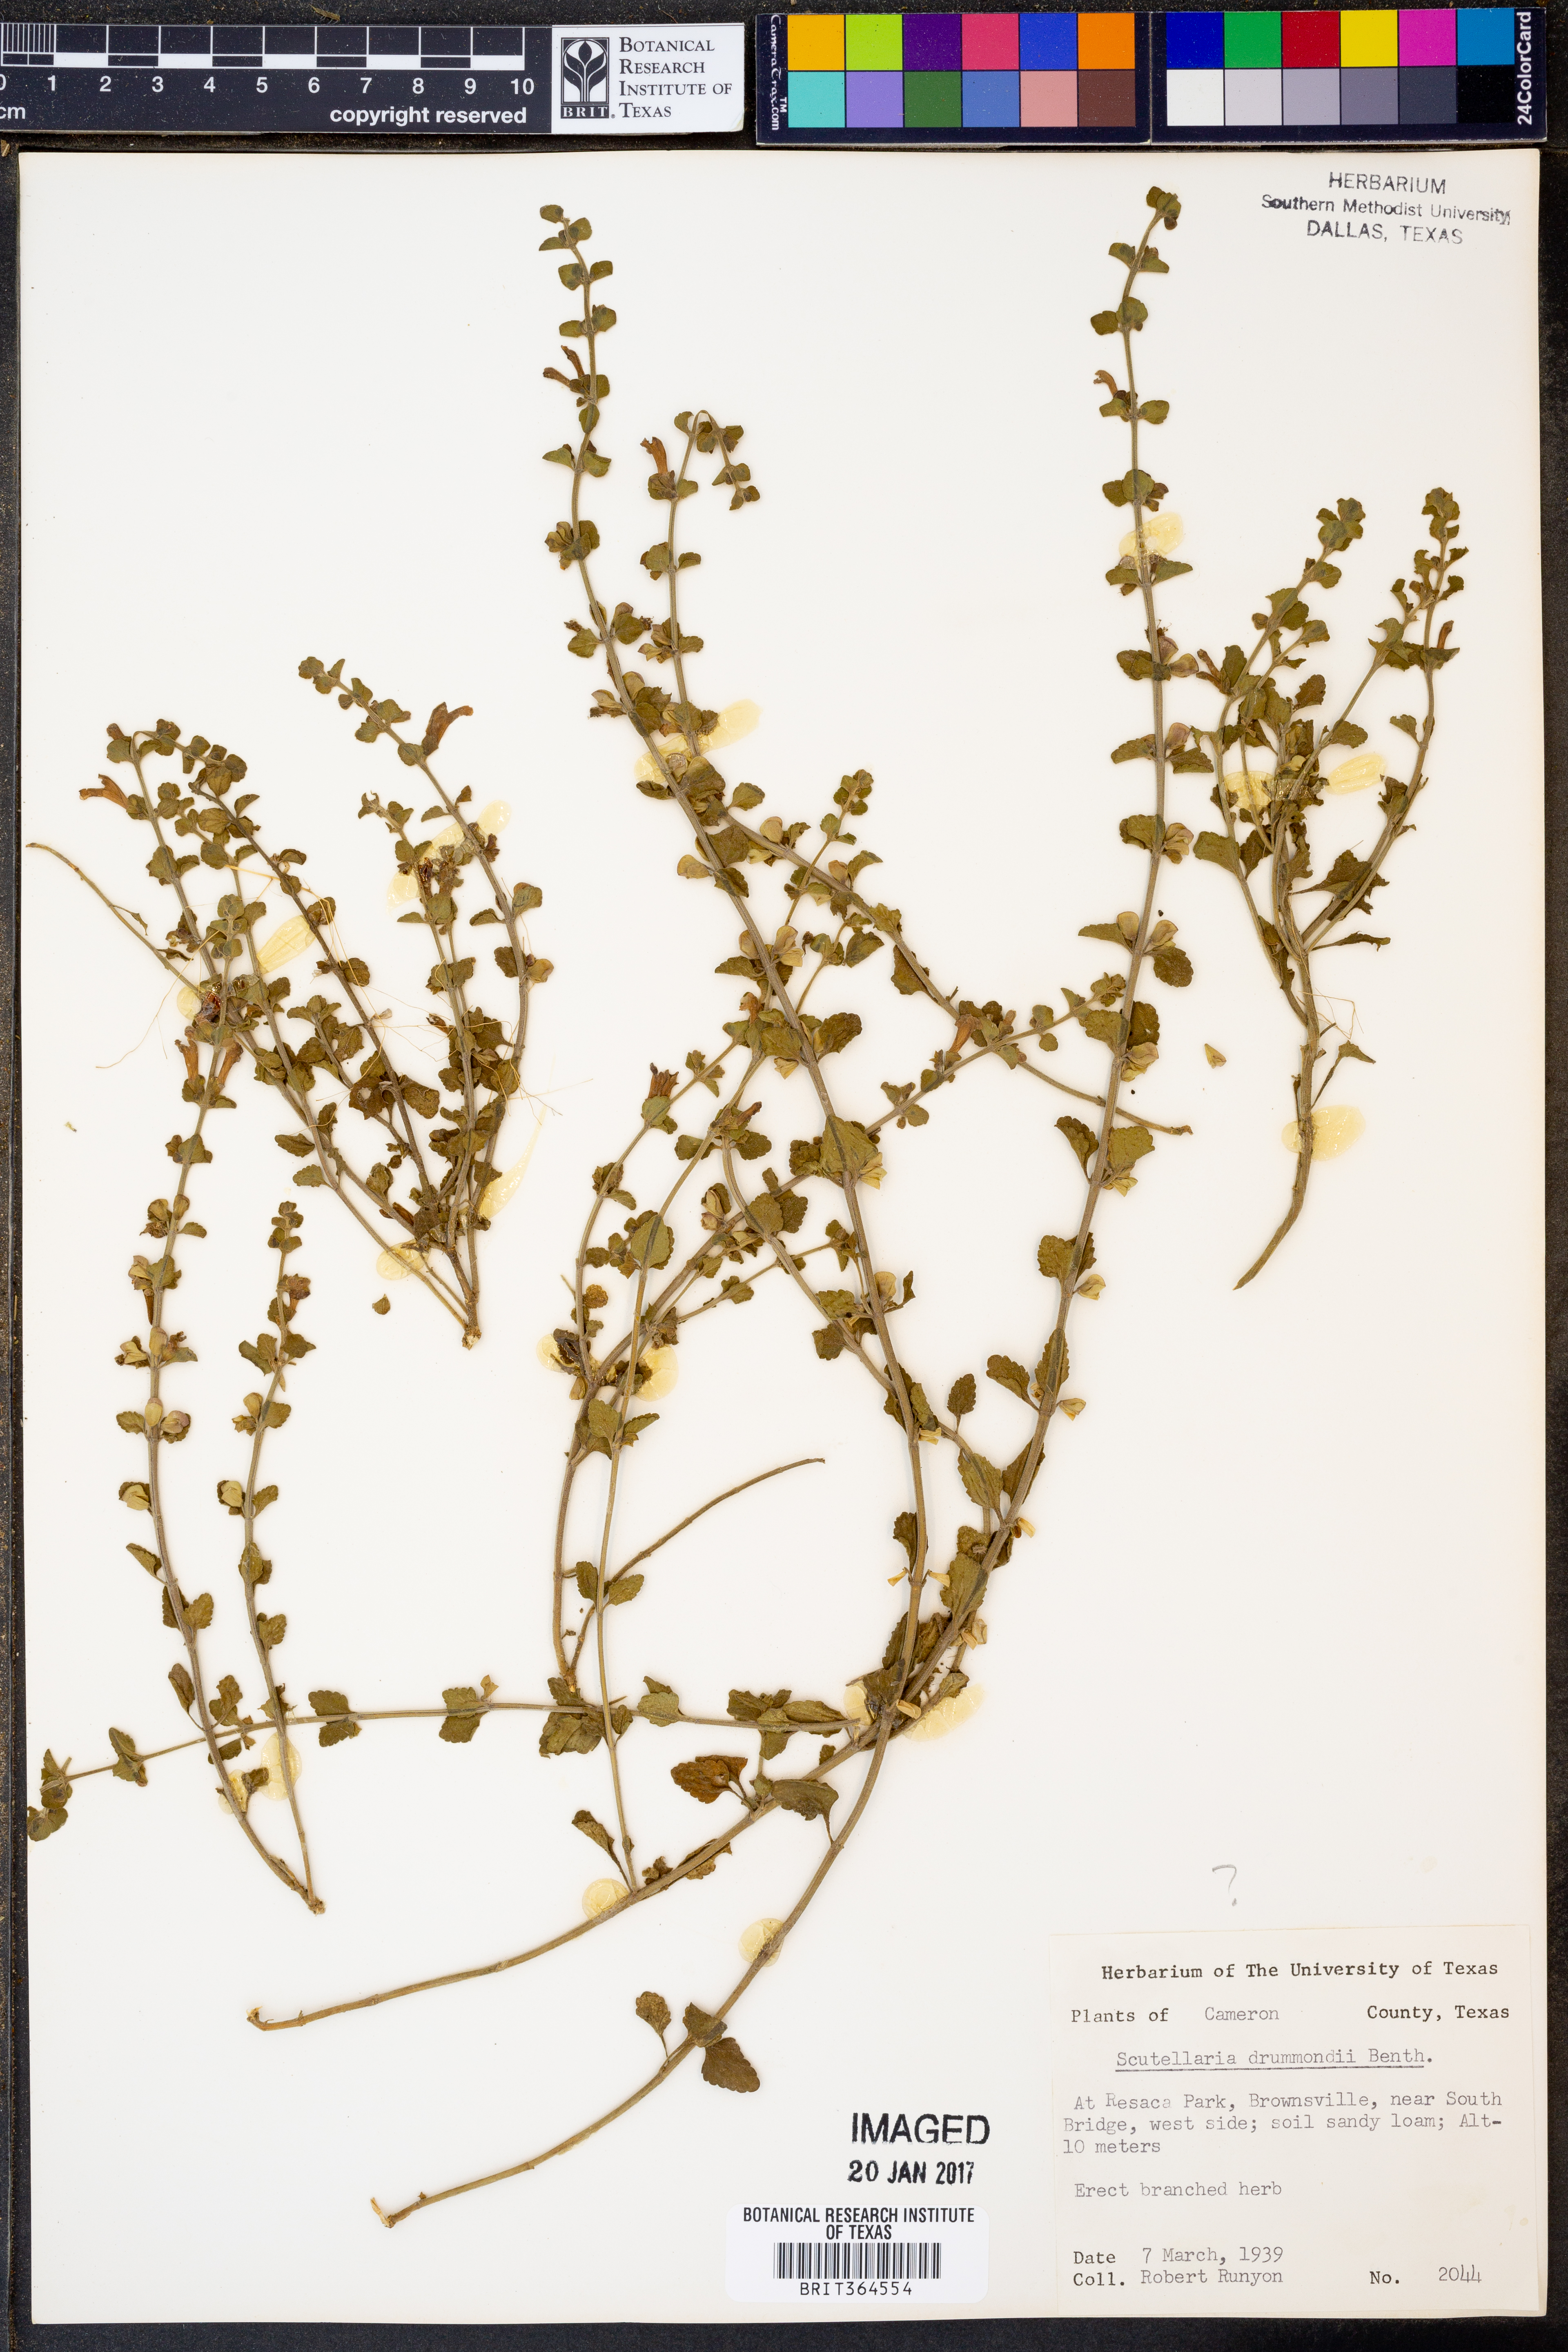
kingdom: Plantae
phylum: Tracheophyta
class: Magnoliopsida
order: Lamiales
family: Lamiaceae
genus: Scutellaria
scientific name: Scutellaria drummondii
